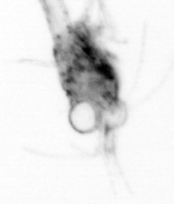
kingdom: Animalia
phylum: Arthropoda
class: Copepoda
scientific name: Copepoda
